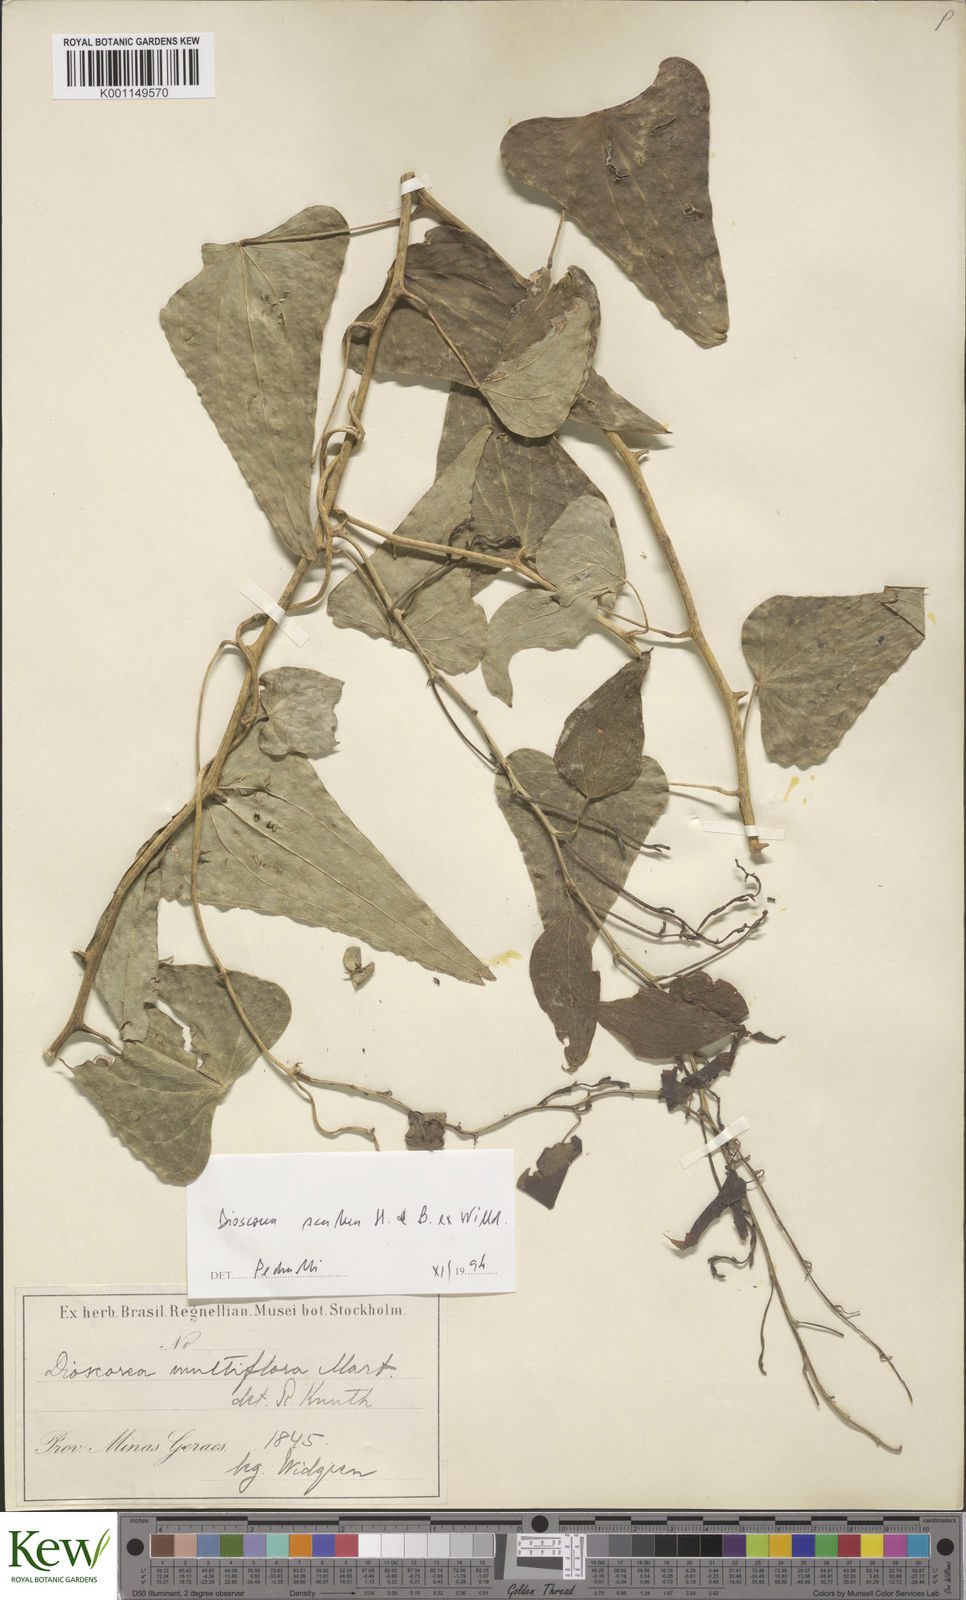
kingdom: Plantae
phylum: Tracheophyta
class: Liliopsida
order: Dioscoreales
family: Dioscoreaceae
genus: Dioscorea
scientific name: Dioscorea multiflora
